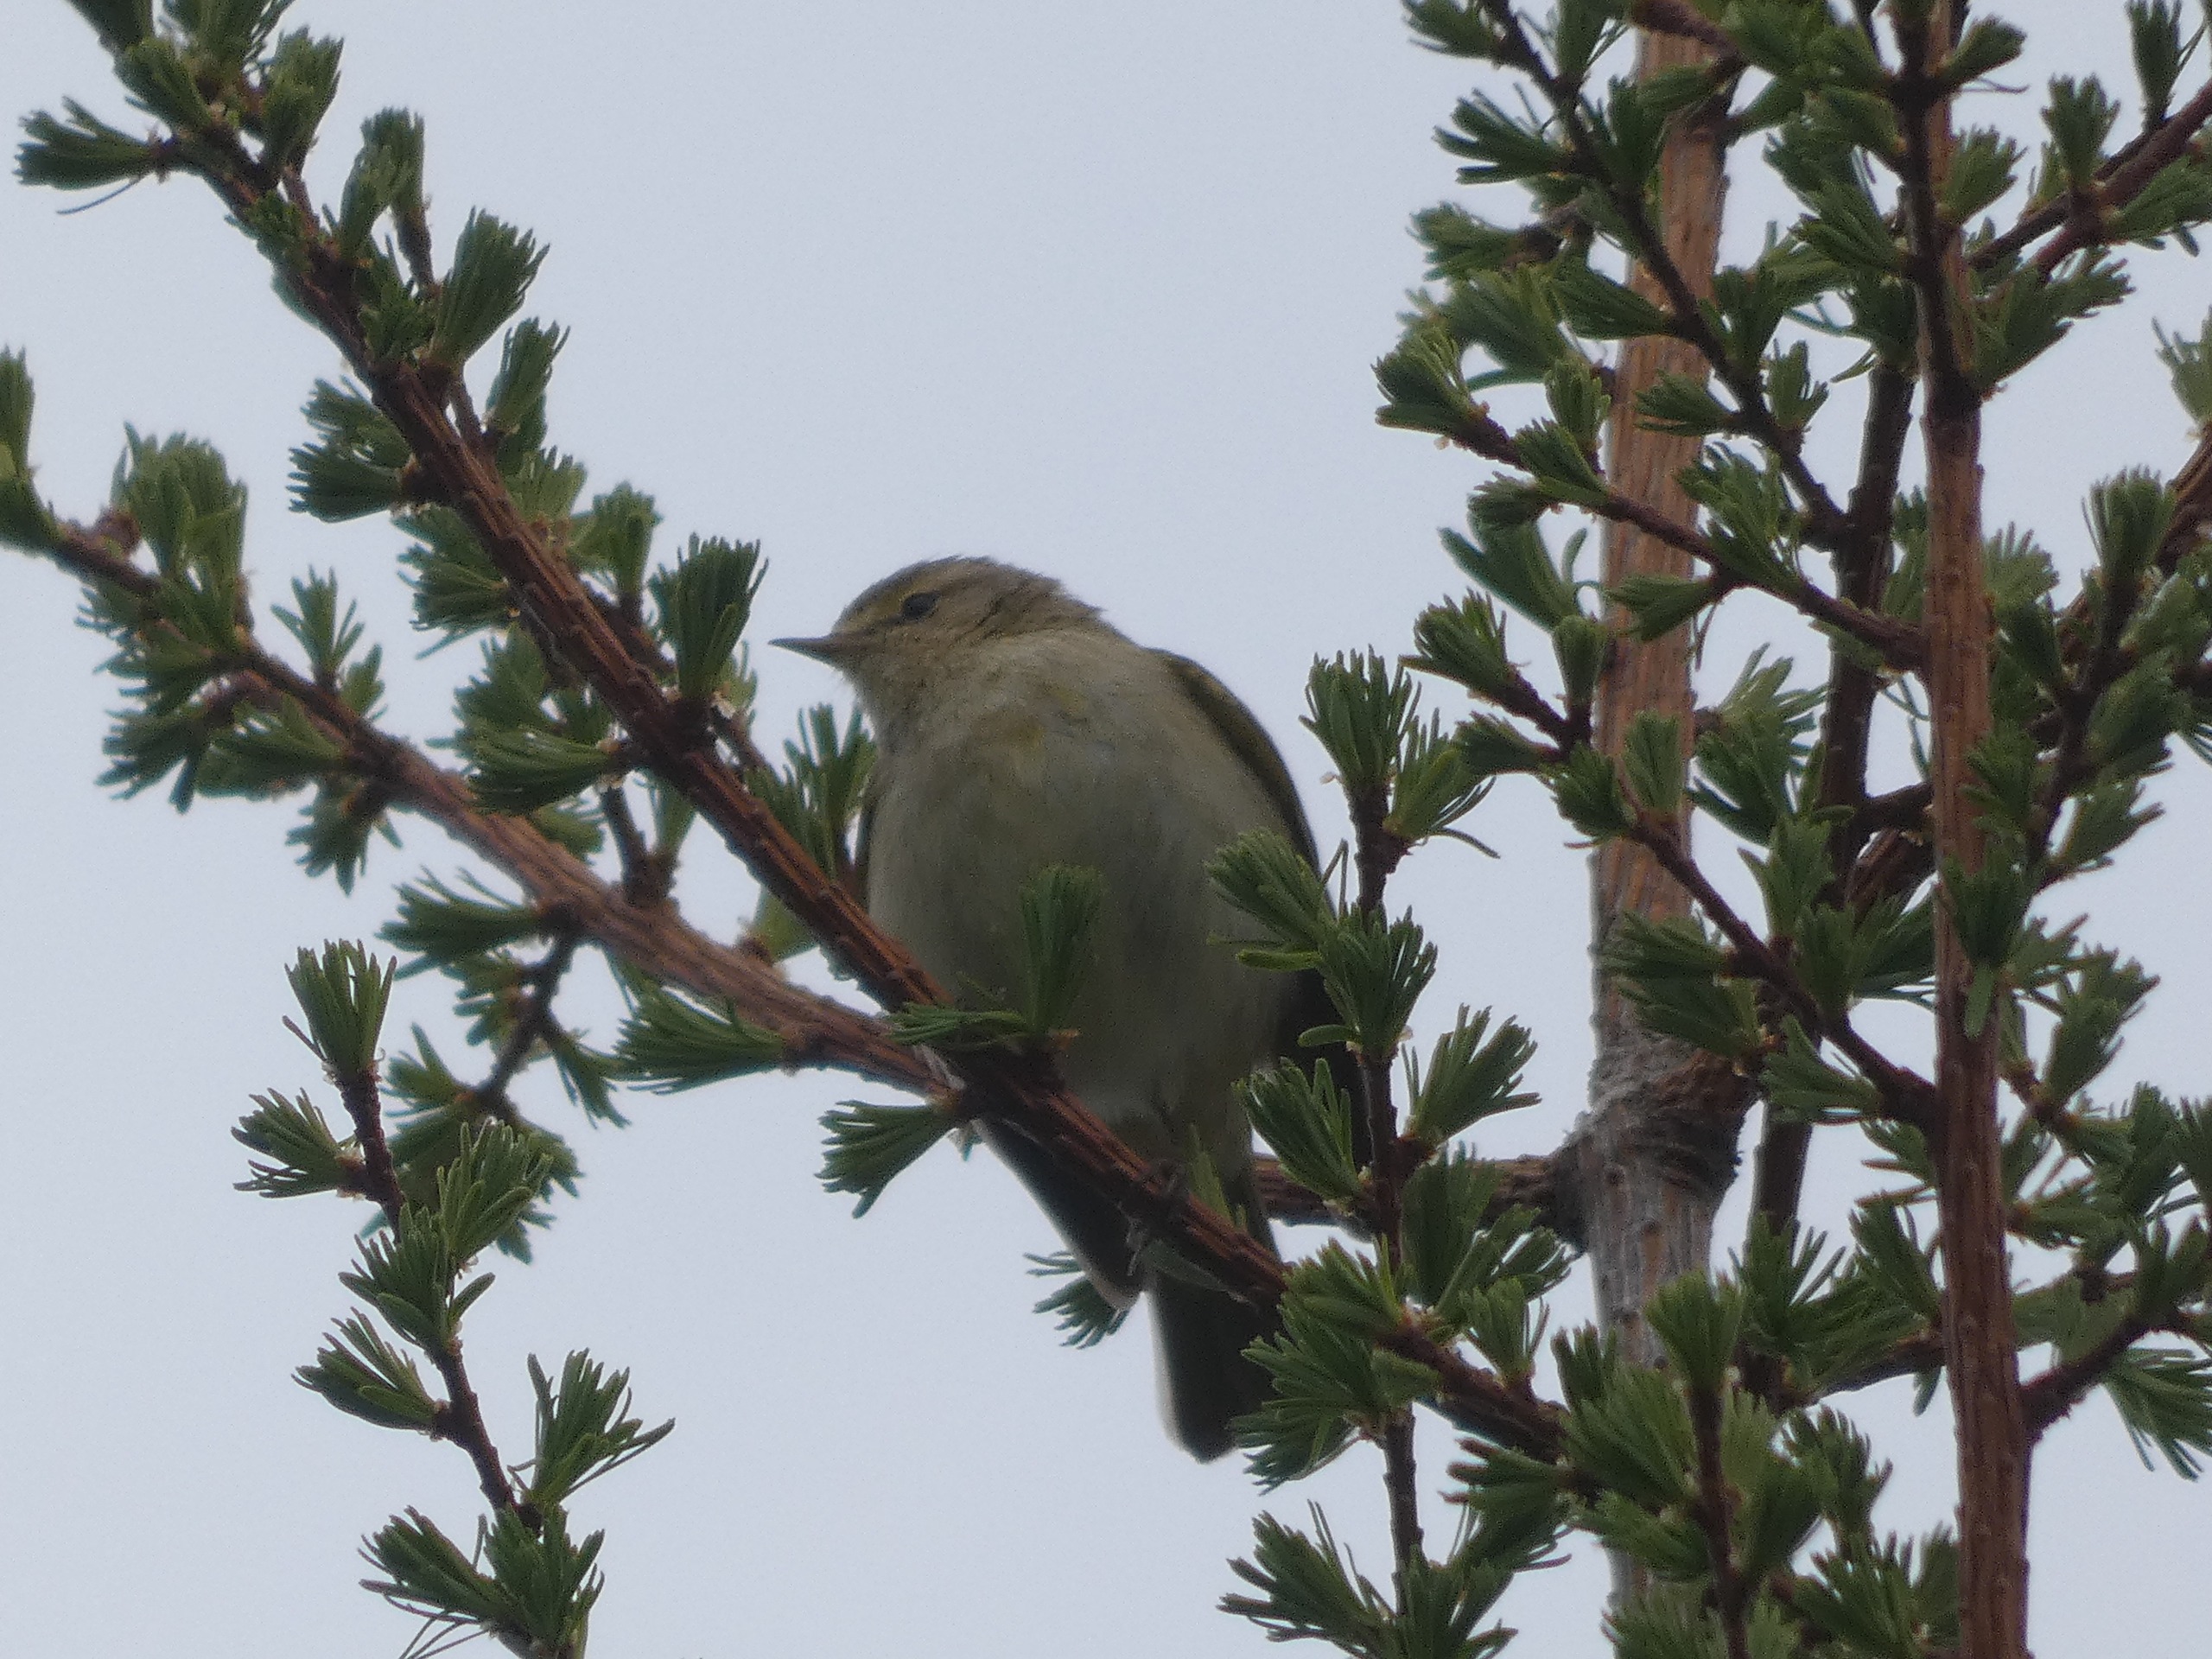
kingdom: Animalia
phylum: Chordata
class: Aves
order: Passeriformes
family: Phylloscopidae
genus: Phylloscopus
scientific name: Phylloscopus collybita
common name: Gransanger
